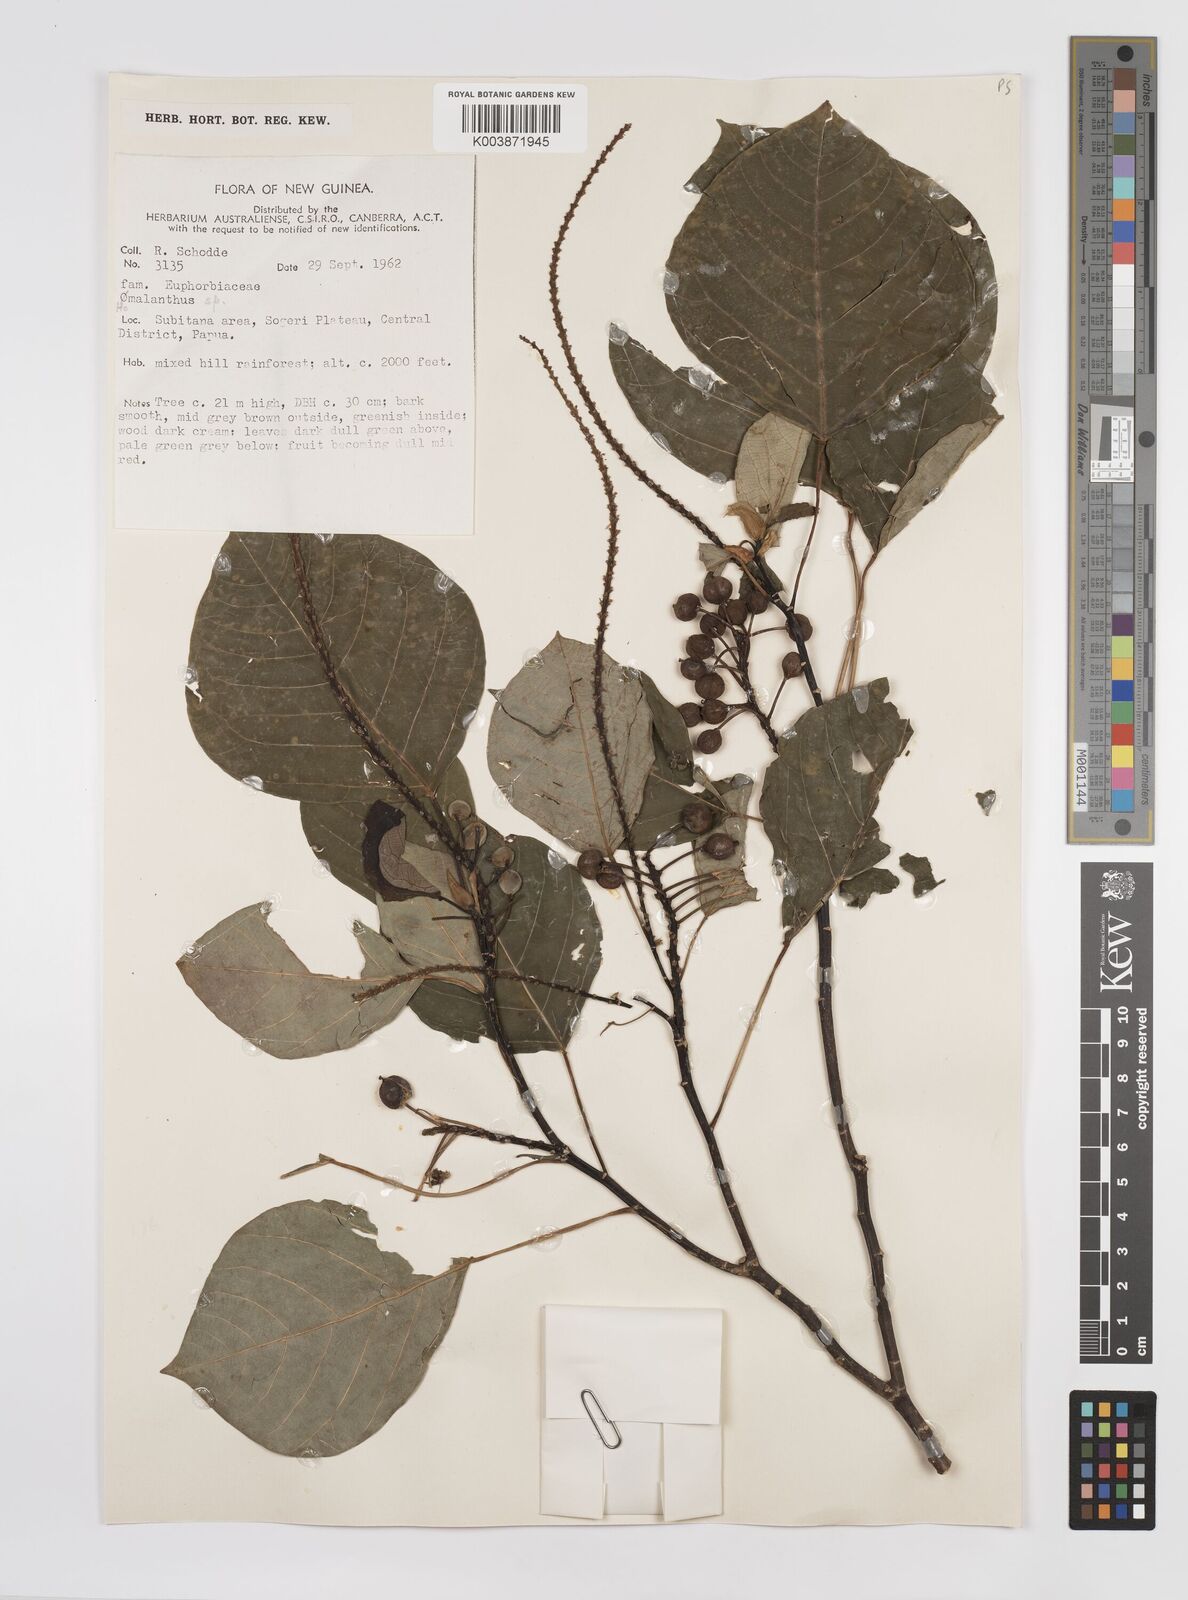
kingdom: Plantae
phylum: Tracheophyta
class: Magnoliopsida
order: Malpighiales
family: Euphorbiaceae
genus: Homalanthus
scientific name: Homalanthus novoguineensis
